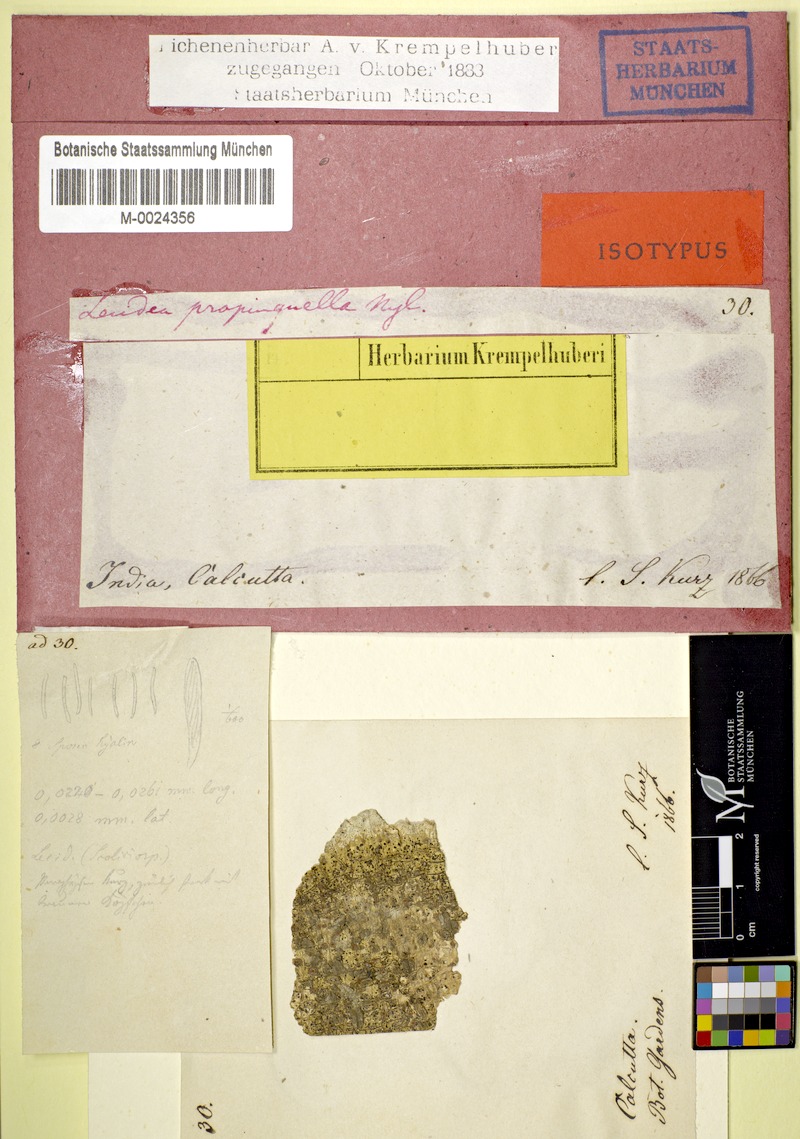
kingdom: Fungi
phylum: Ascomycota
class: Lecanoromycetes
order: Lecanorales
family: Ramalinaceae
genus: Bacidia
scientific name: Bacidia
